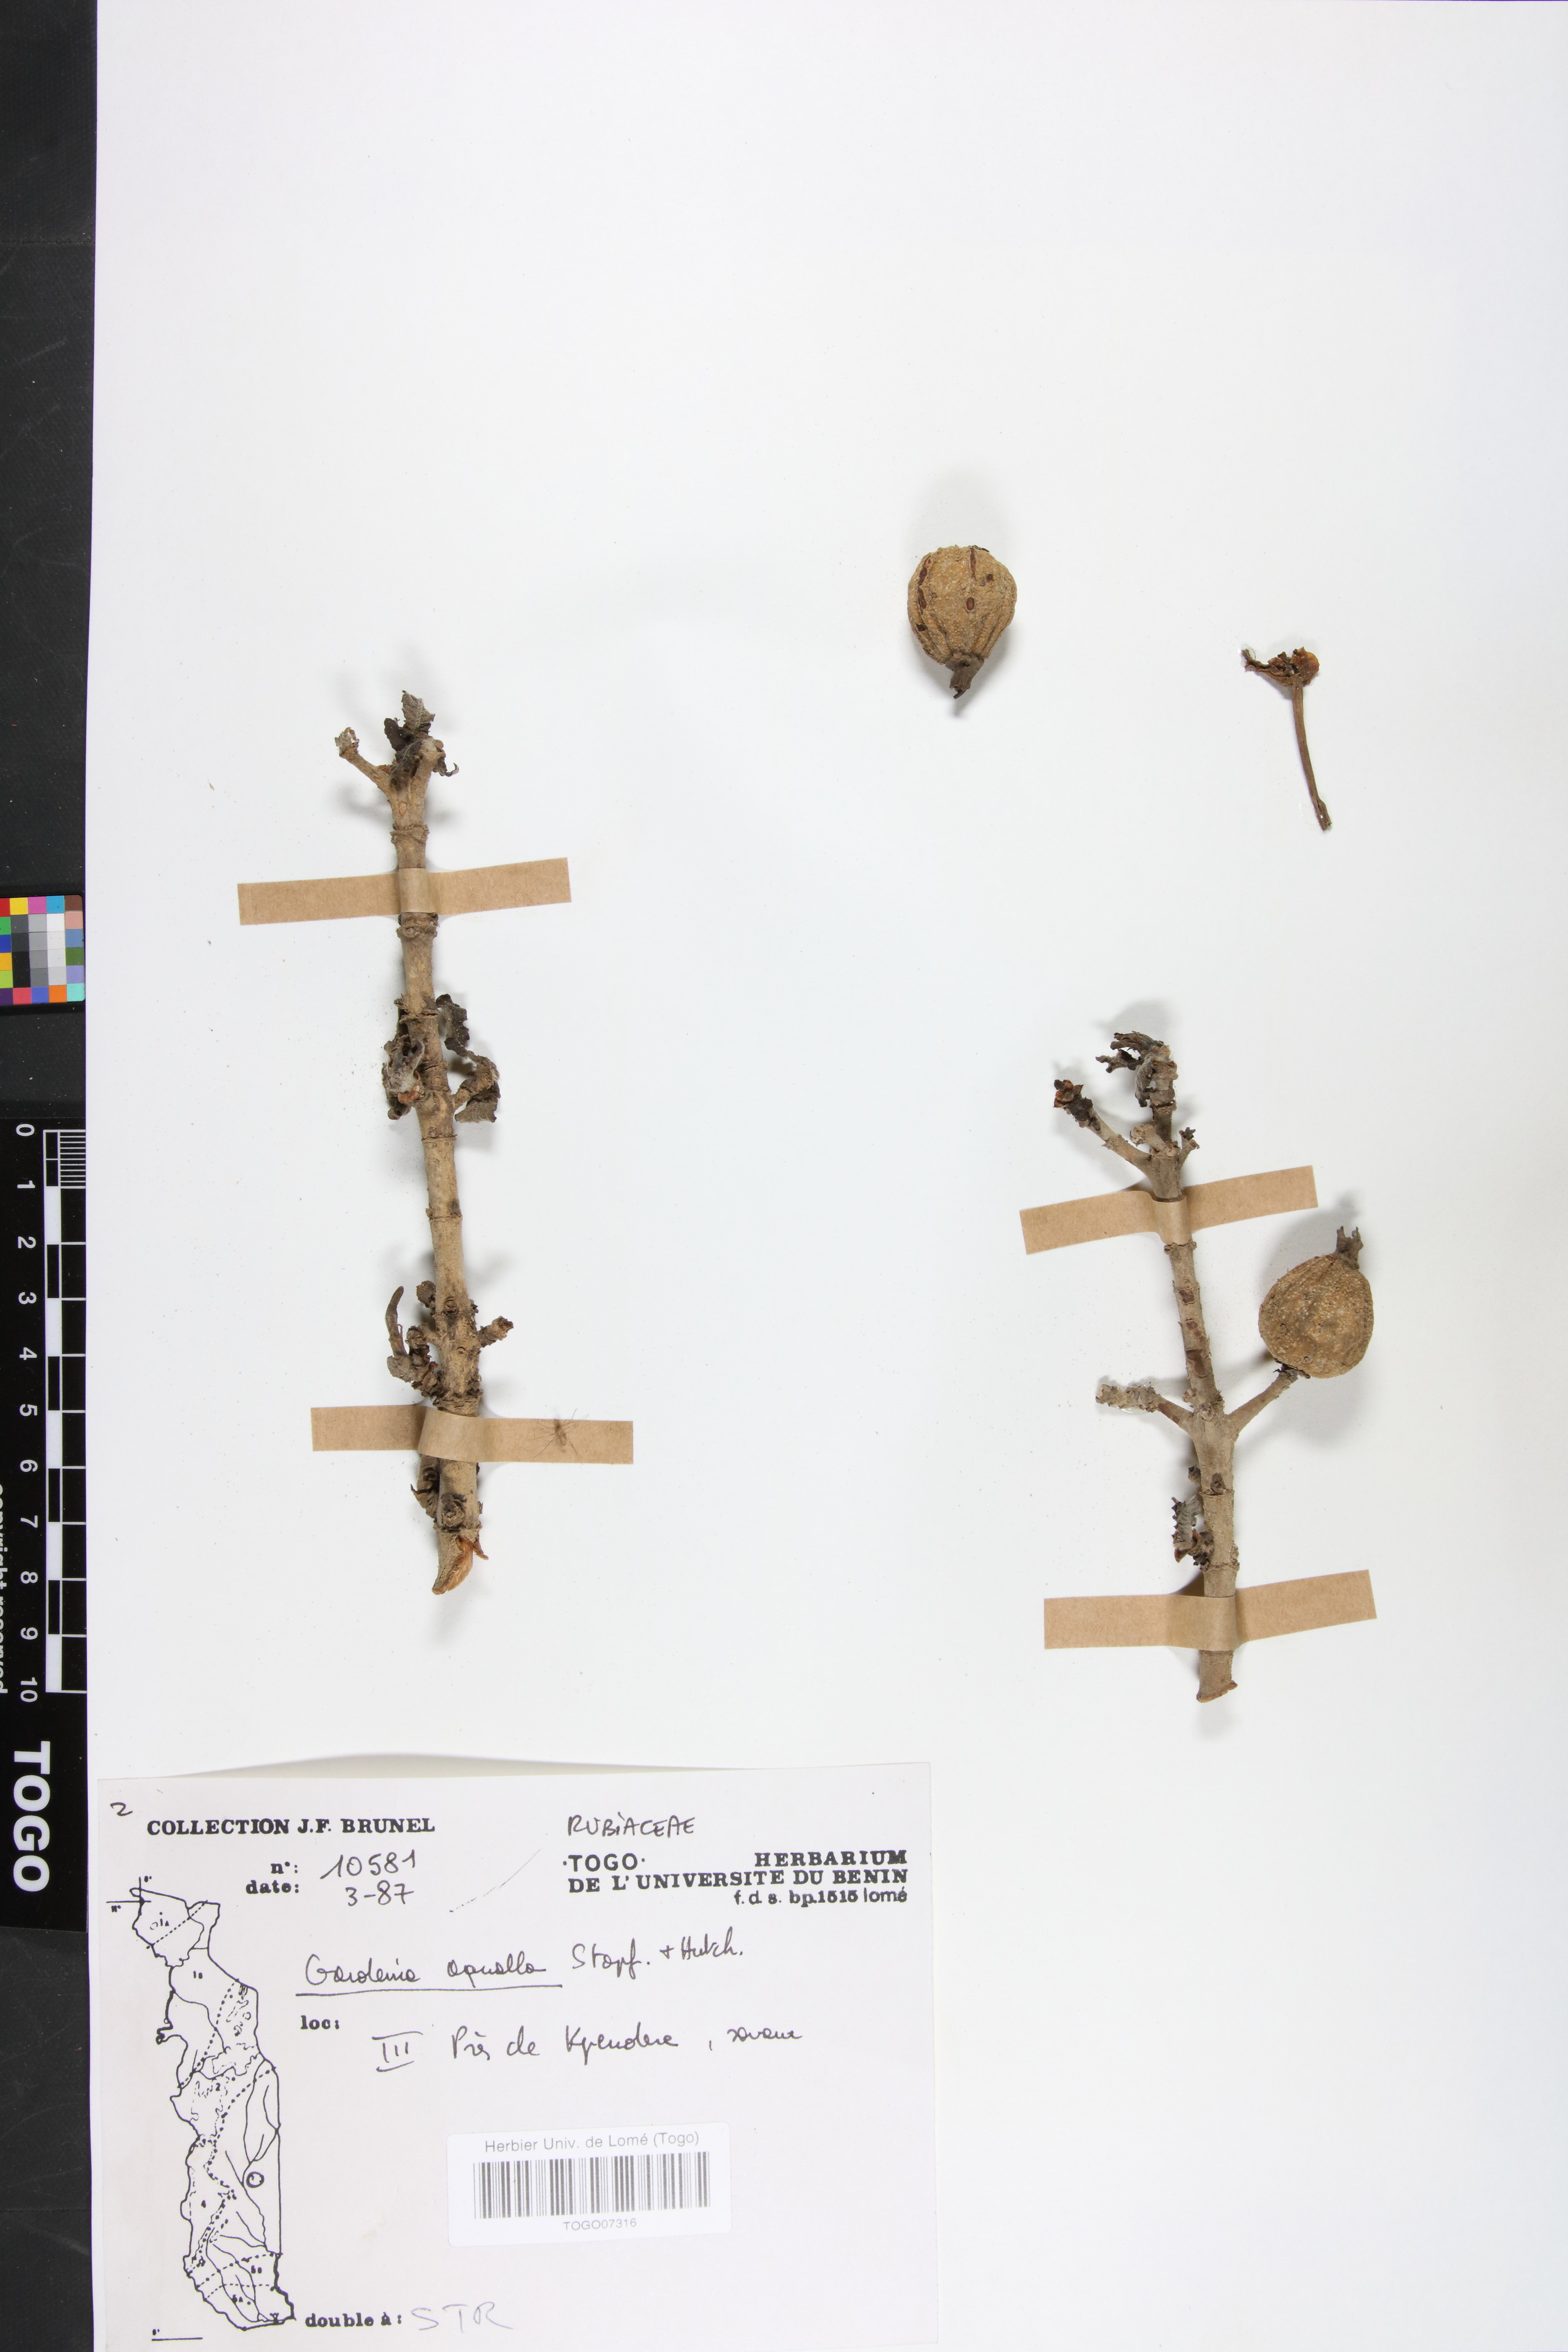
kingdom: Plantae
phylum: Tracheophyta
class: Magnoliopsida
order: Gentianales
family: Rubiaceae
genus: Gardenia
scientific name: Gardenia aqualla
